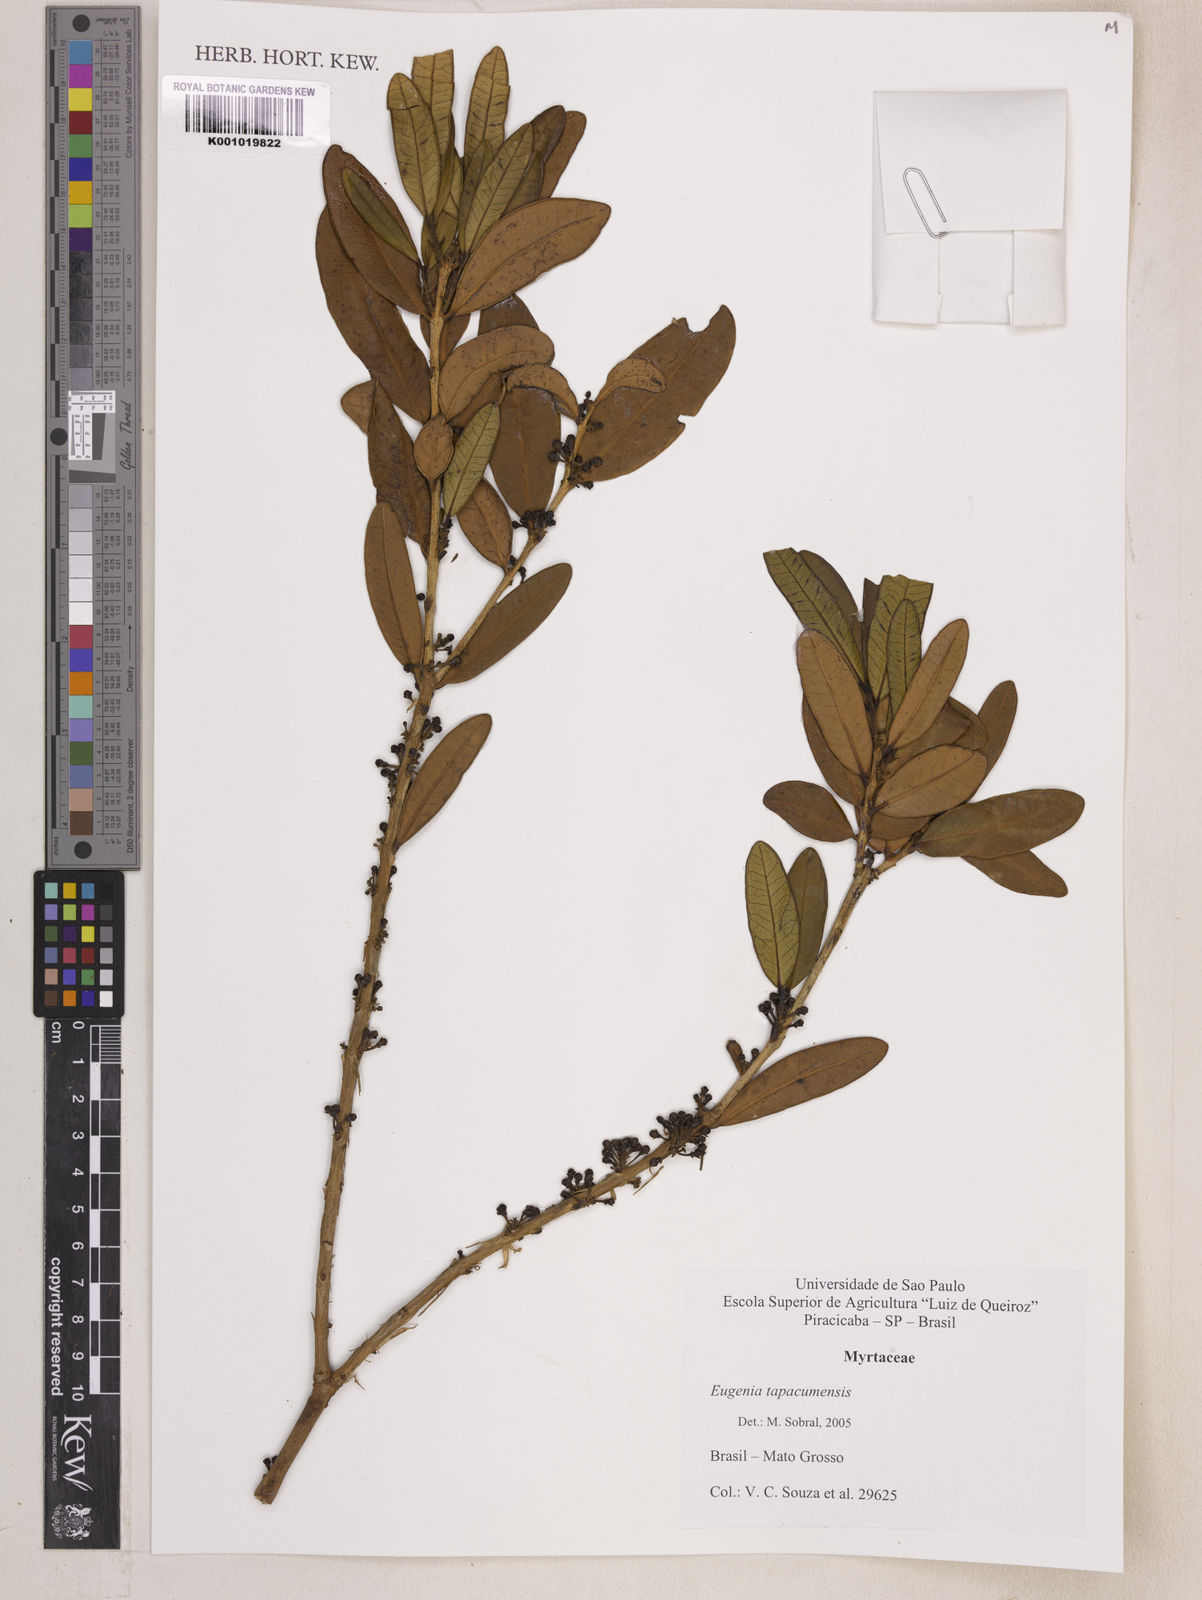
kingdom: Plantae
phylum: Tracheophyta
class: Magnoliopsida
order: Myrtales
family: Myrtaceae
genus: Eugenia
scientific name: Eugenia stictopetala
